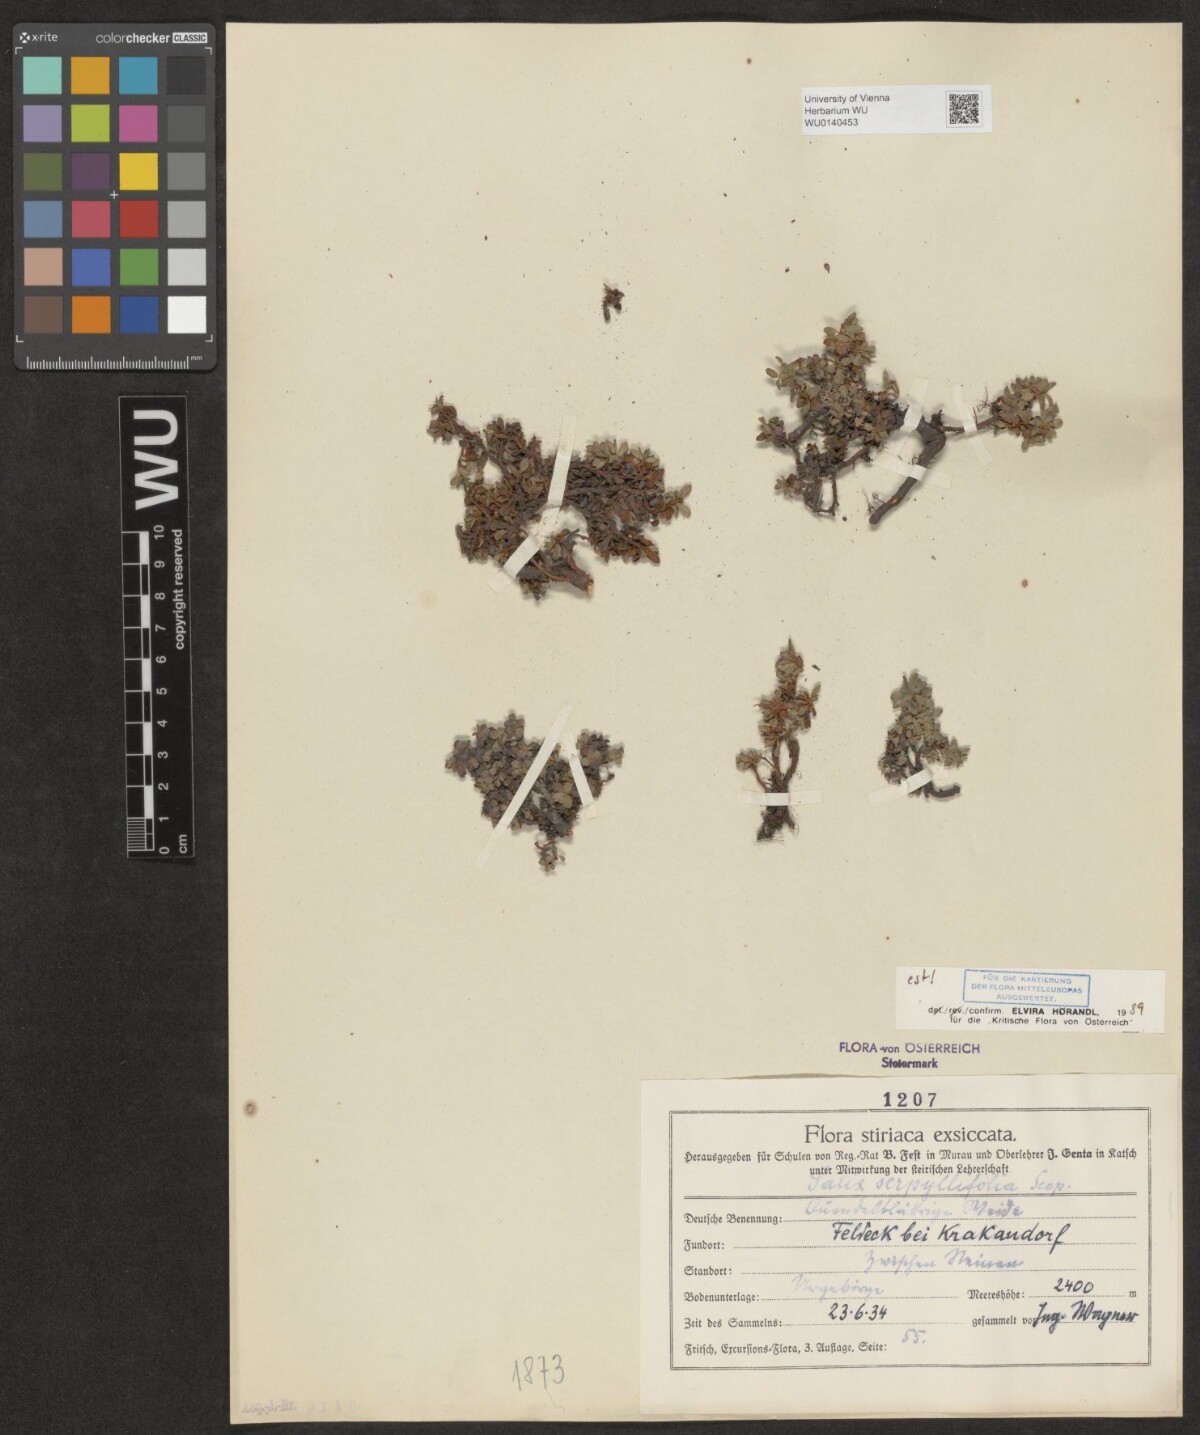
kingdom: Plantae
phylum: Tracheophyta
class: Magnoliopsida
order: Malpighiales
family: Salicaceae
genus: Salix
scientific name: Salix serpillifolia
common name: Thyme-leaf willow
